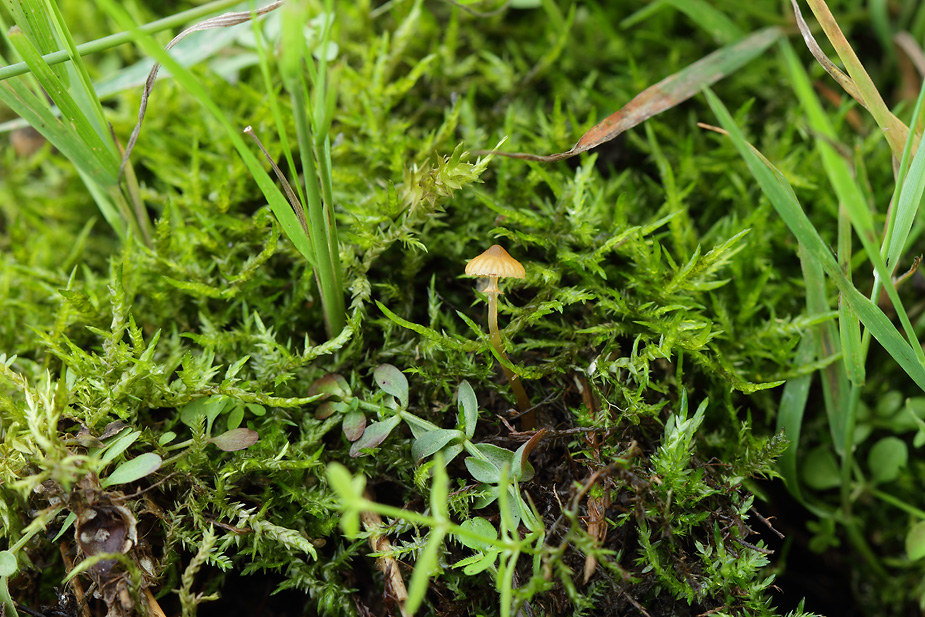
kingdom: Fungi
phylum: Basidiomycota
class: Agaricomycetes
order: Agaricales
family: Hymenogastraceae
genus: Galerina
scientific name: Galerina jaapii
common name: hvidbæltet hjelmhat
